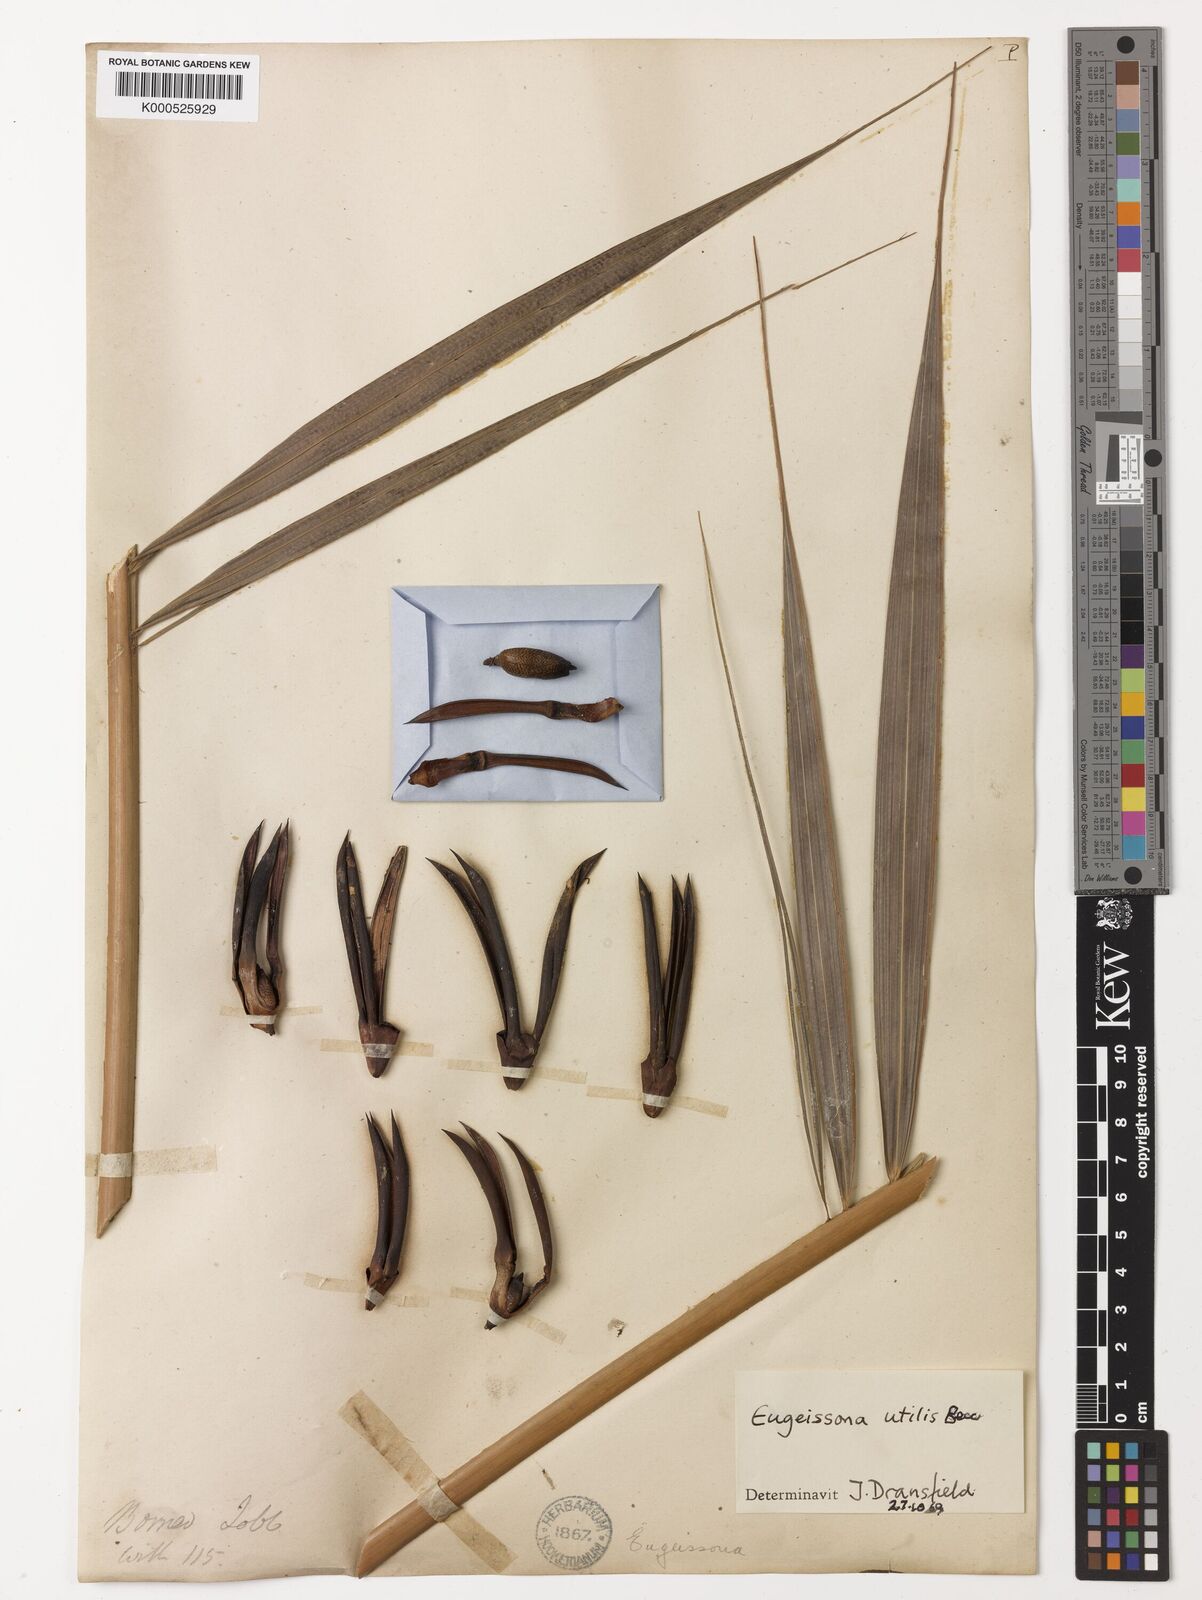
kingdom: Plantae
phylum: Tracheophyta
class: Liliopsida
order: Arecales
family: Arecaceae
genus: Eugeissona
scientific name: Eugeissona utilis
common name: Wild bornean sago palm
